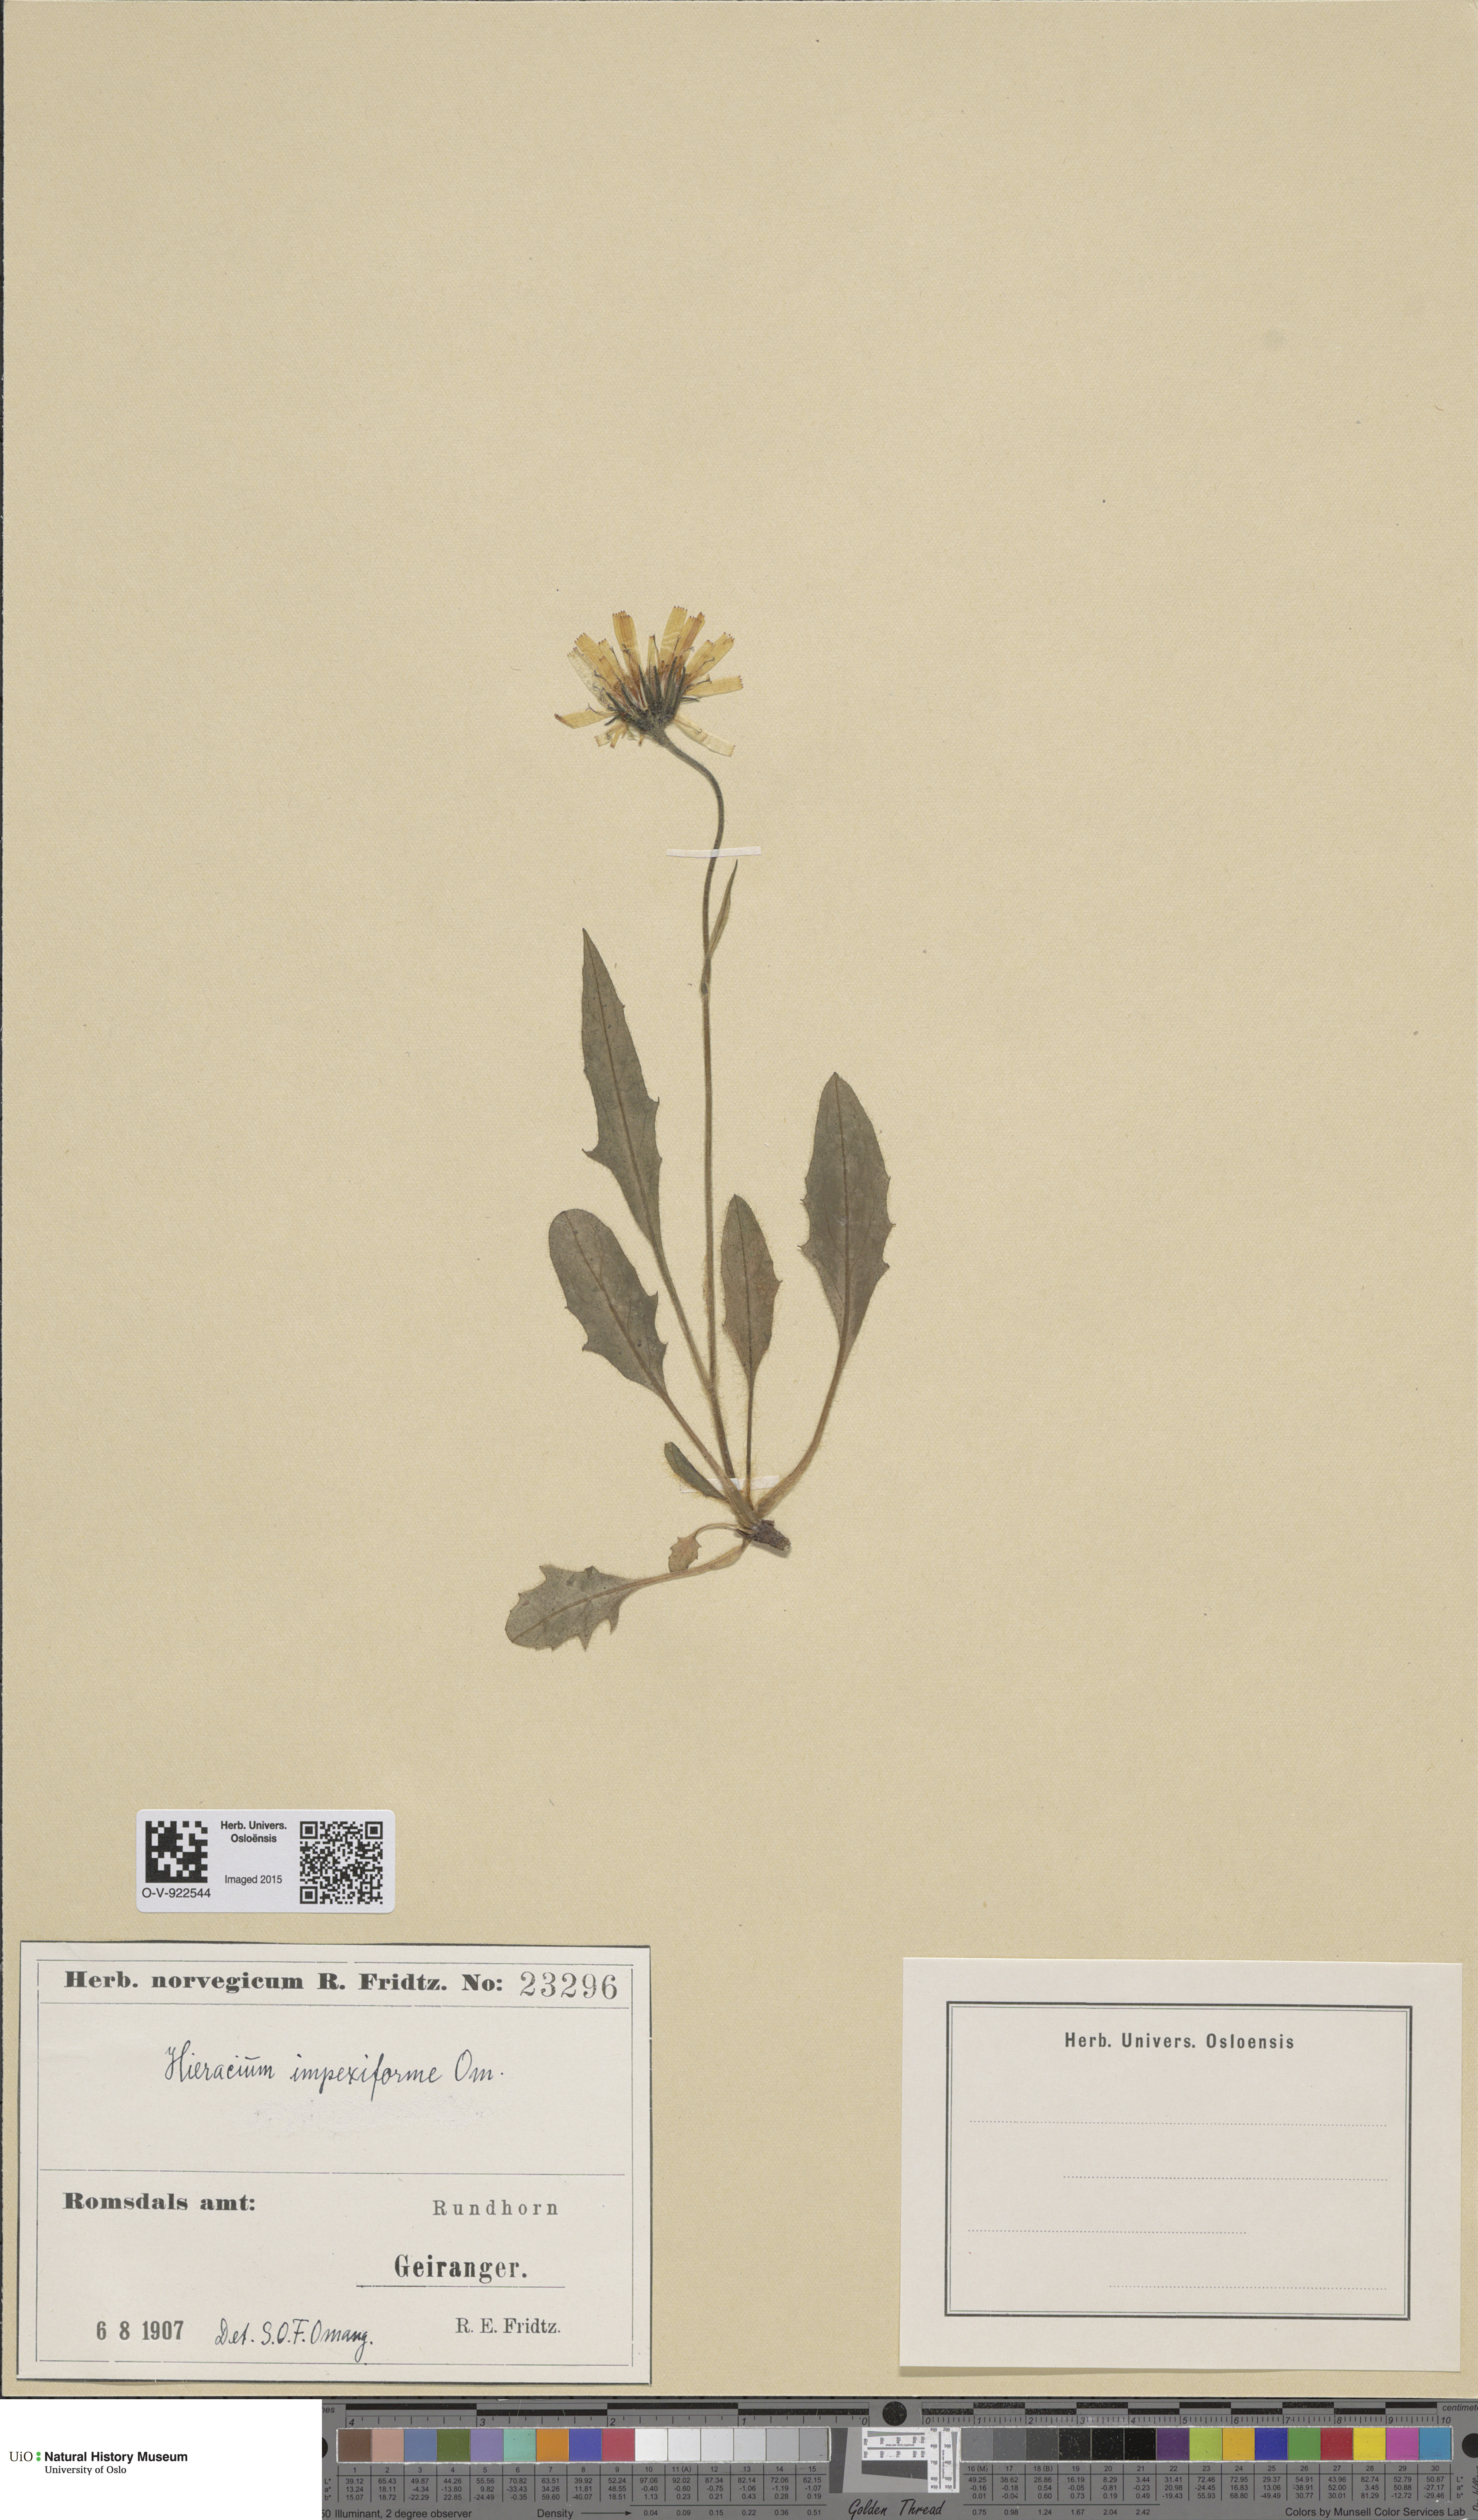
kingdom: Plantae
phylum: Tracheophyta
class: Magnoliopsida
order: Asterales
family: Asteraceae
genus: Hieracium
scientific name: Hieracium
